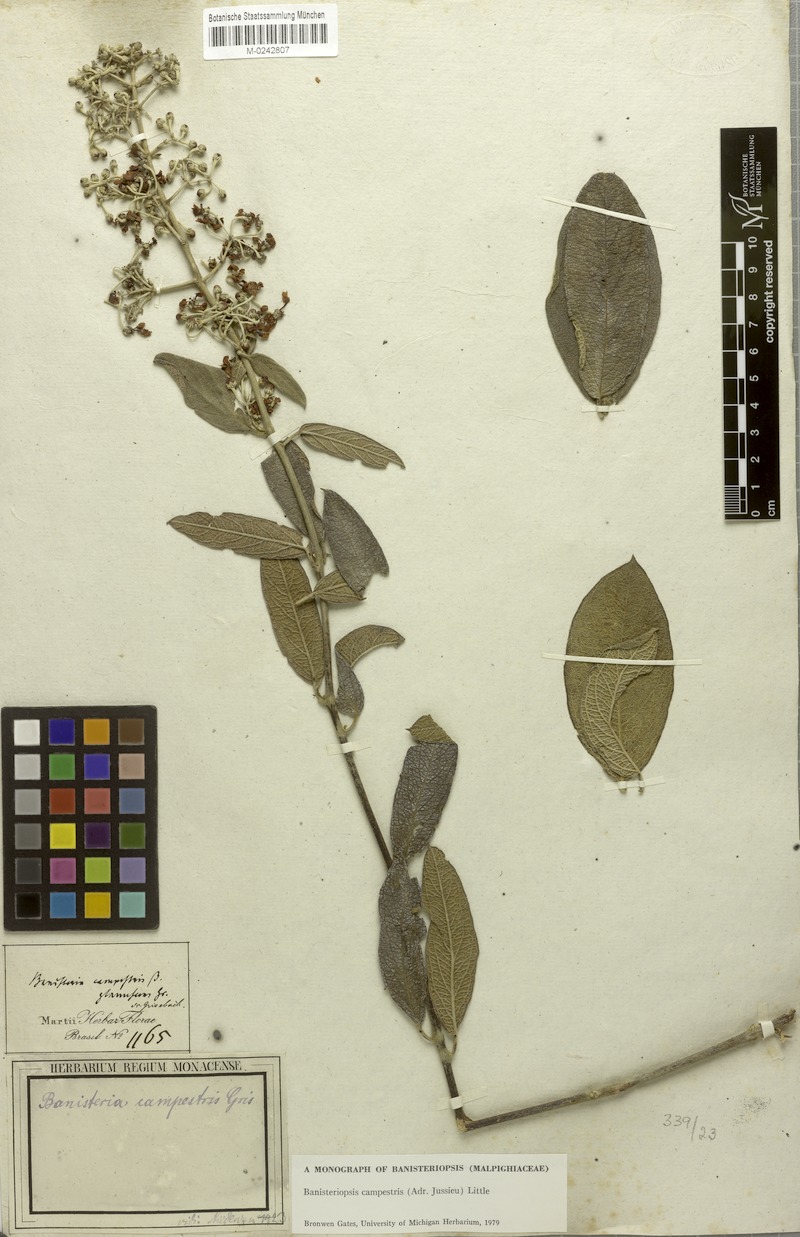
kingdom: Plantae
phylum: Tracheophyta
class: Magnoliopsida
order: Malpighiales
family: Malpighiaceae
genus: Banisteriopsis
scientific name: Banisteriopsis campestris
